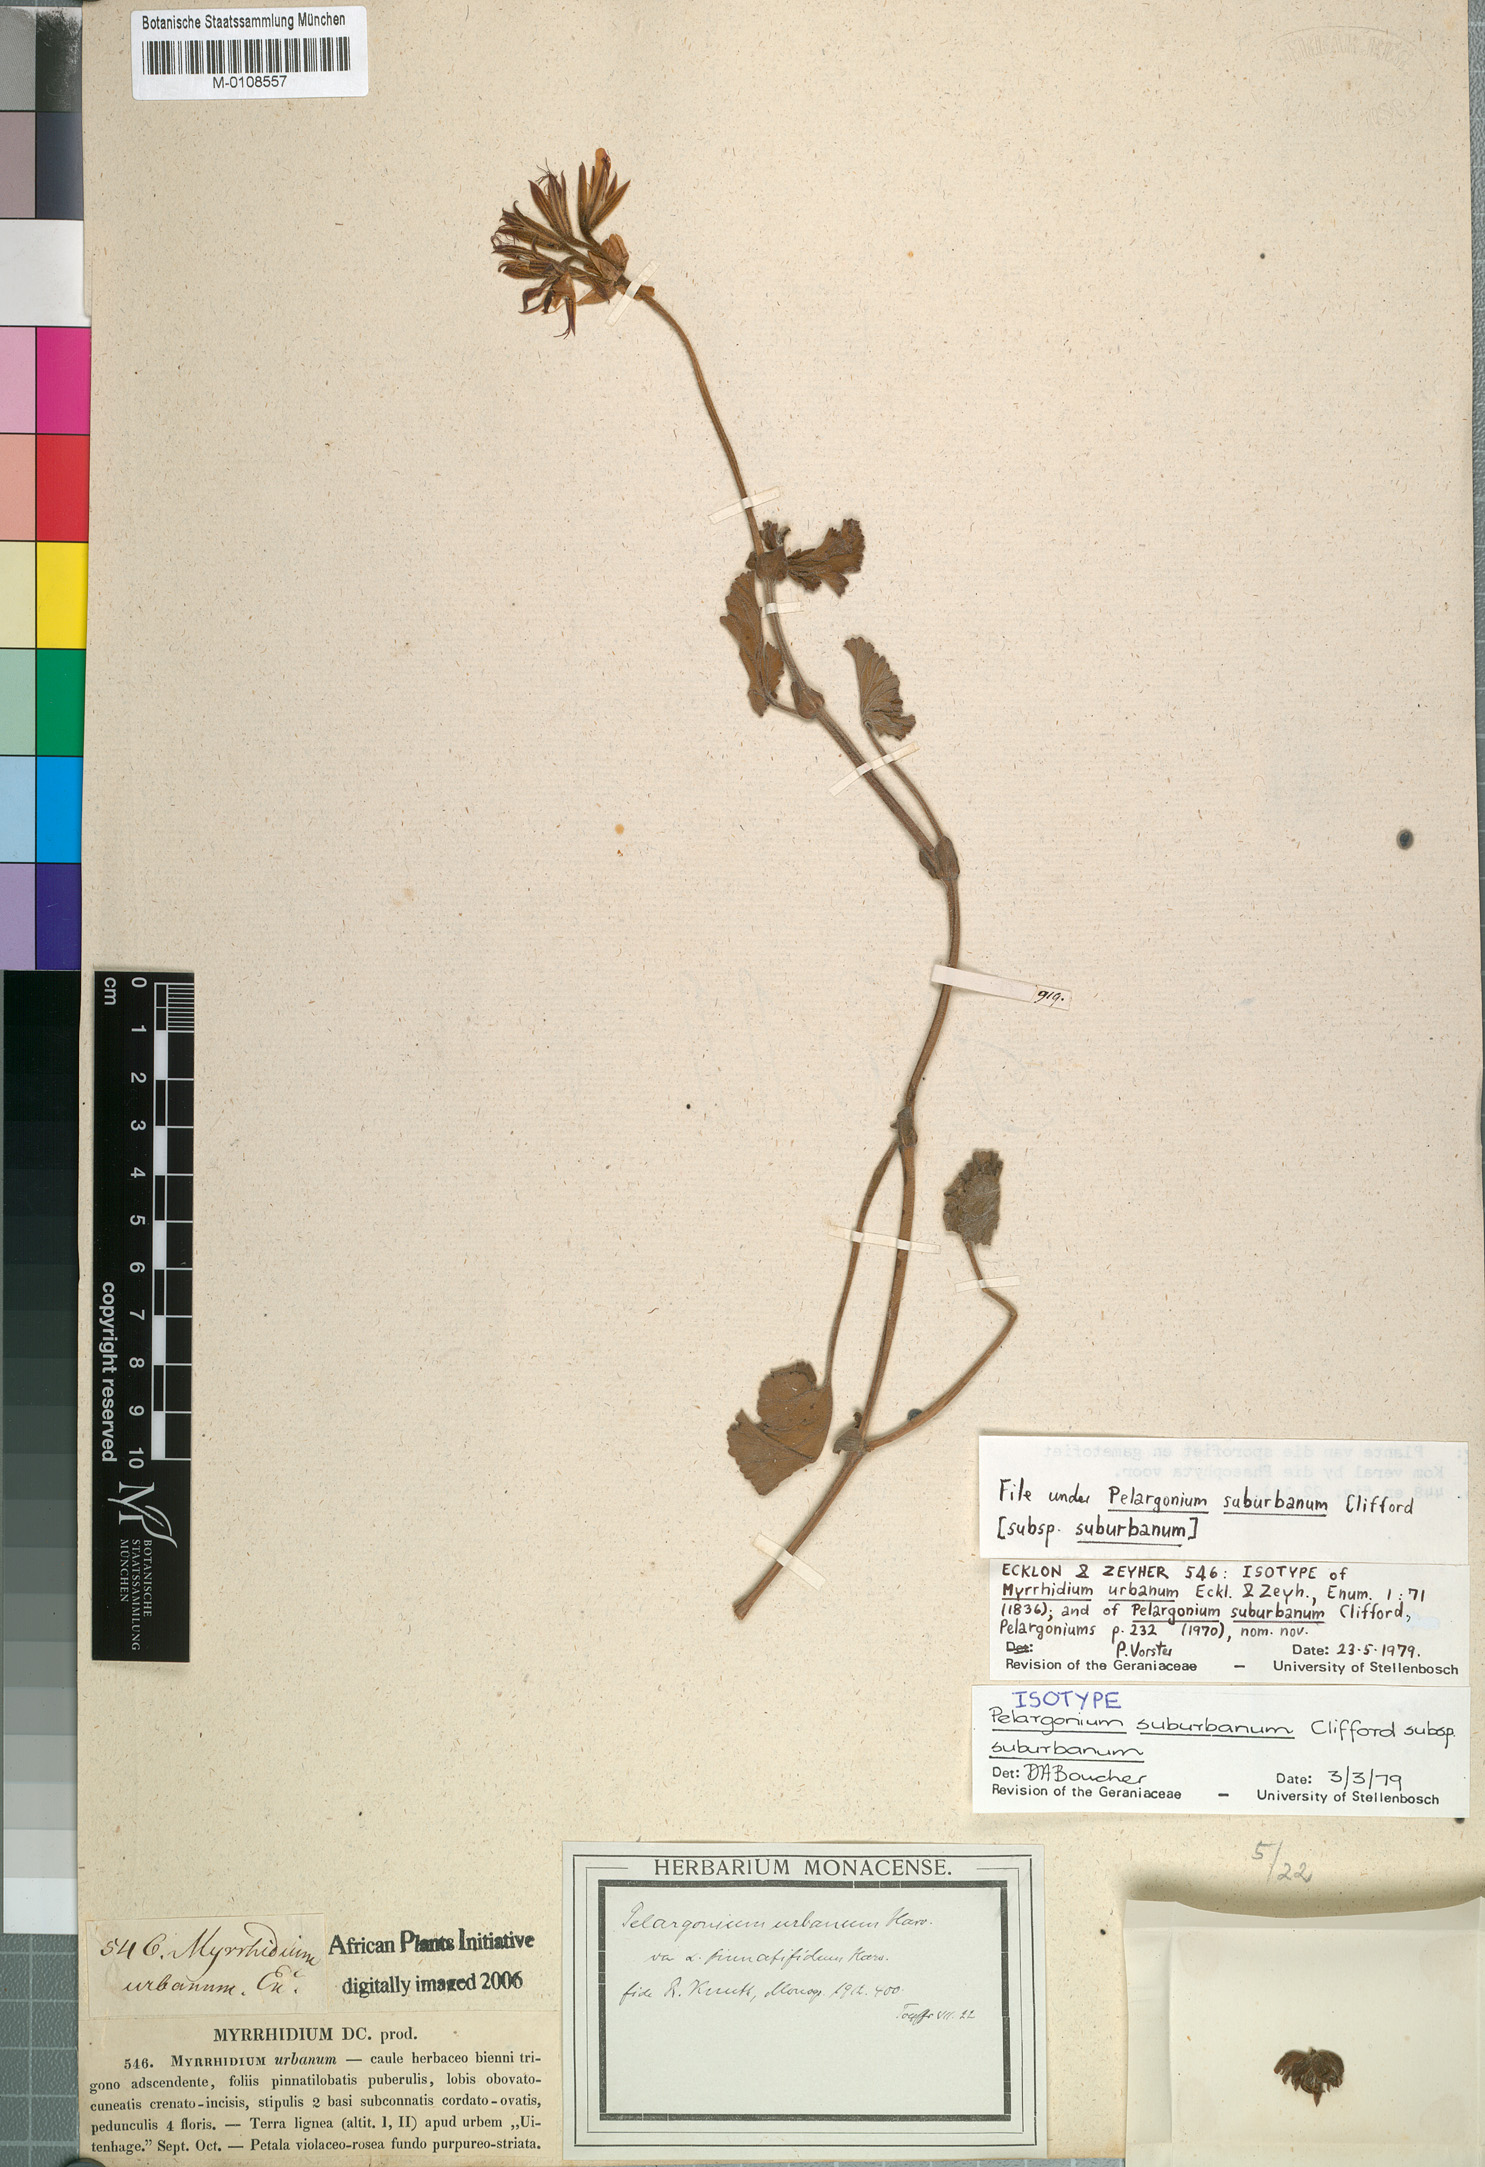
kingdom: Plantae
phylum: Tracheophyta
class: Magnoliopsida
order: Geraniales
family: Geraniaceae
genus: Pelargonium
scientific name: Pelargonium suburbanum
